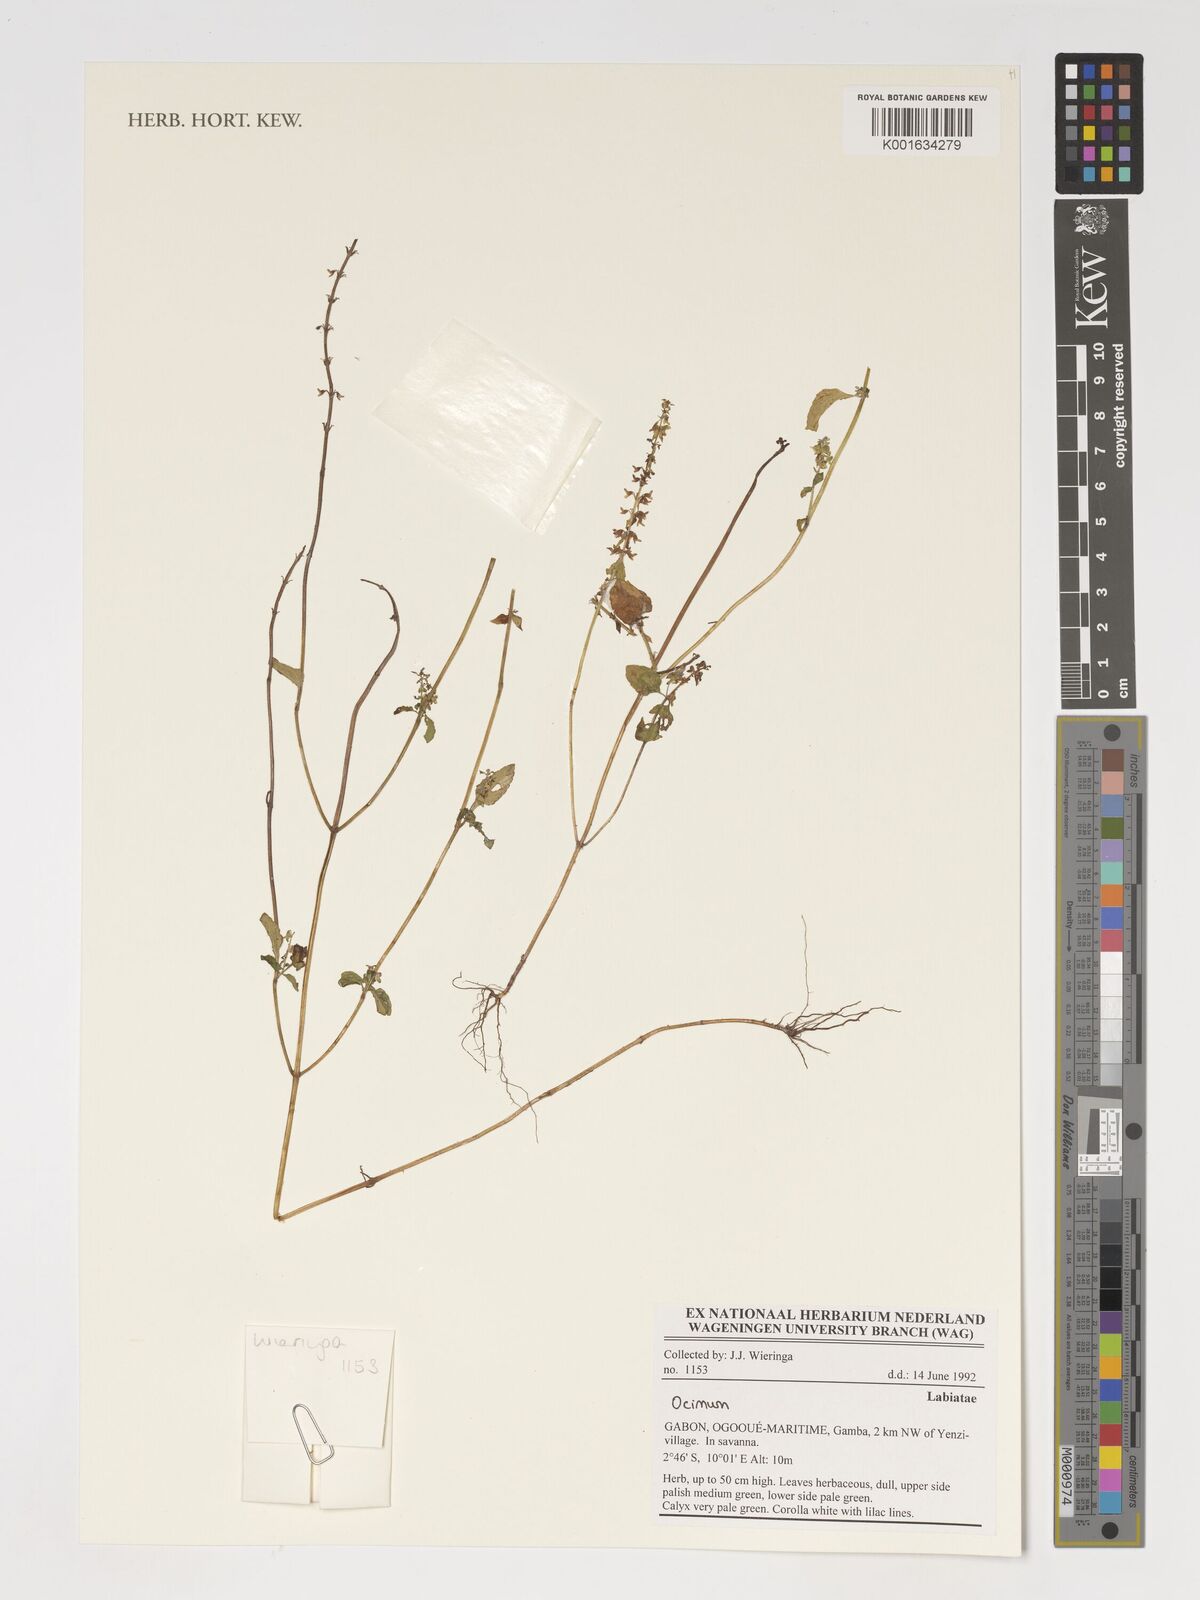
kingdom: Plantae
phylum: Tracheophyta
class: Magnoliopsida
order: Lamiales
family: Lamiaceae
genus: Ocimum
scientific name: Ocimum
